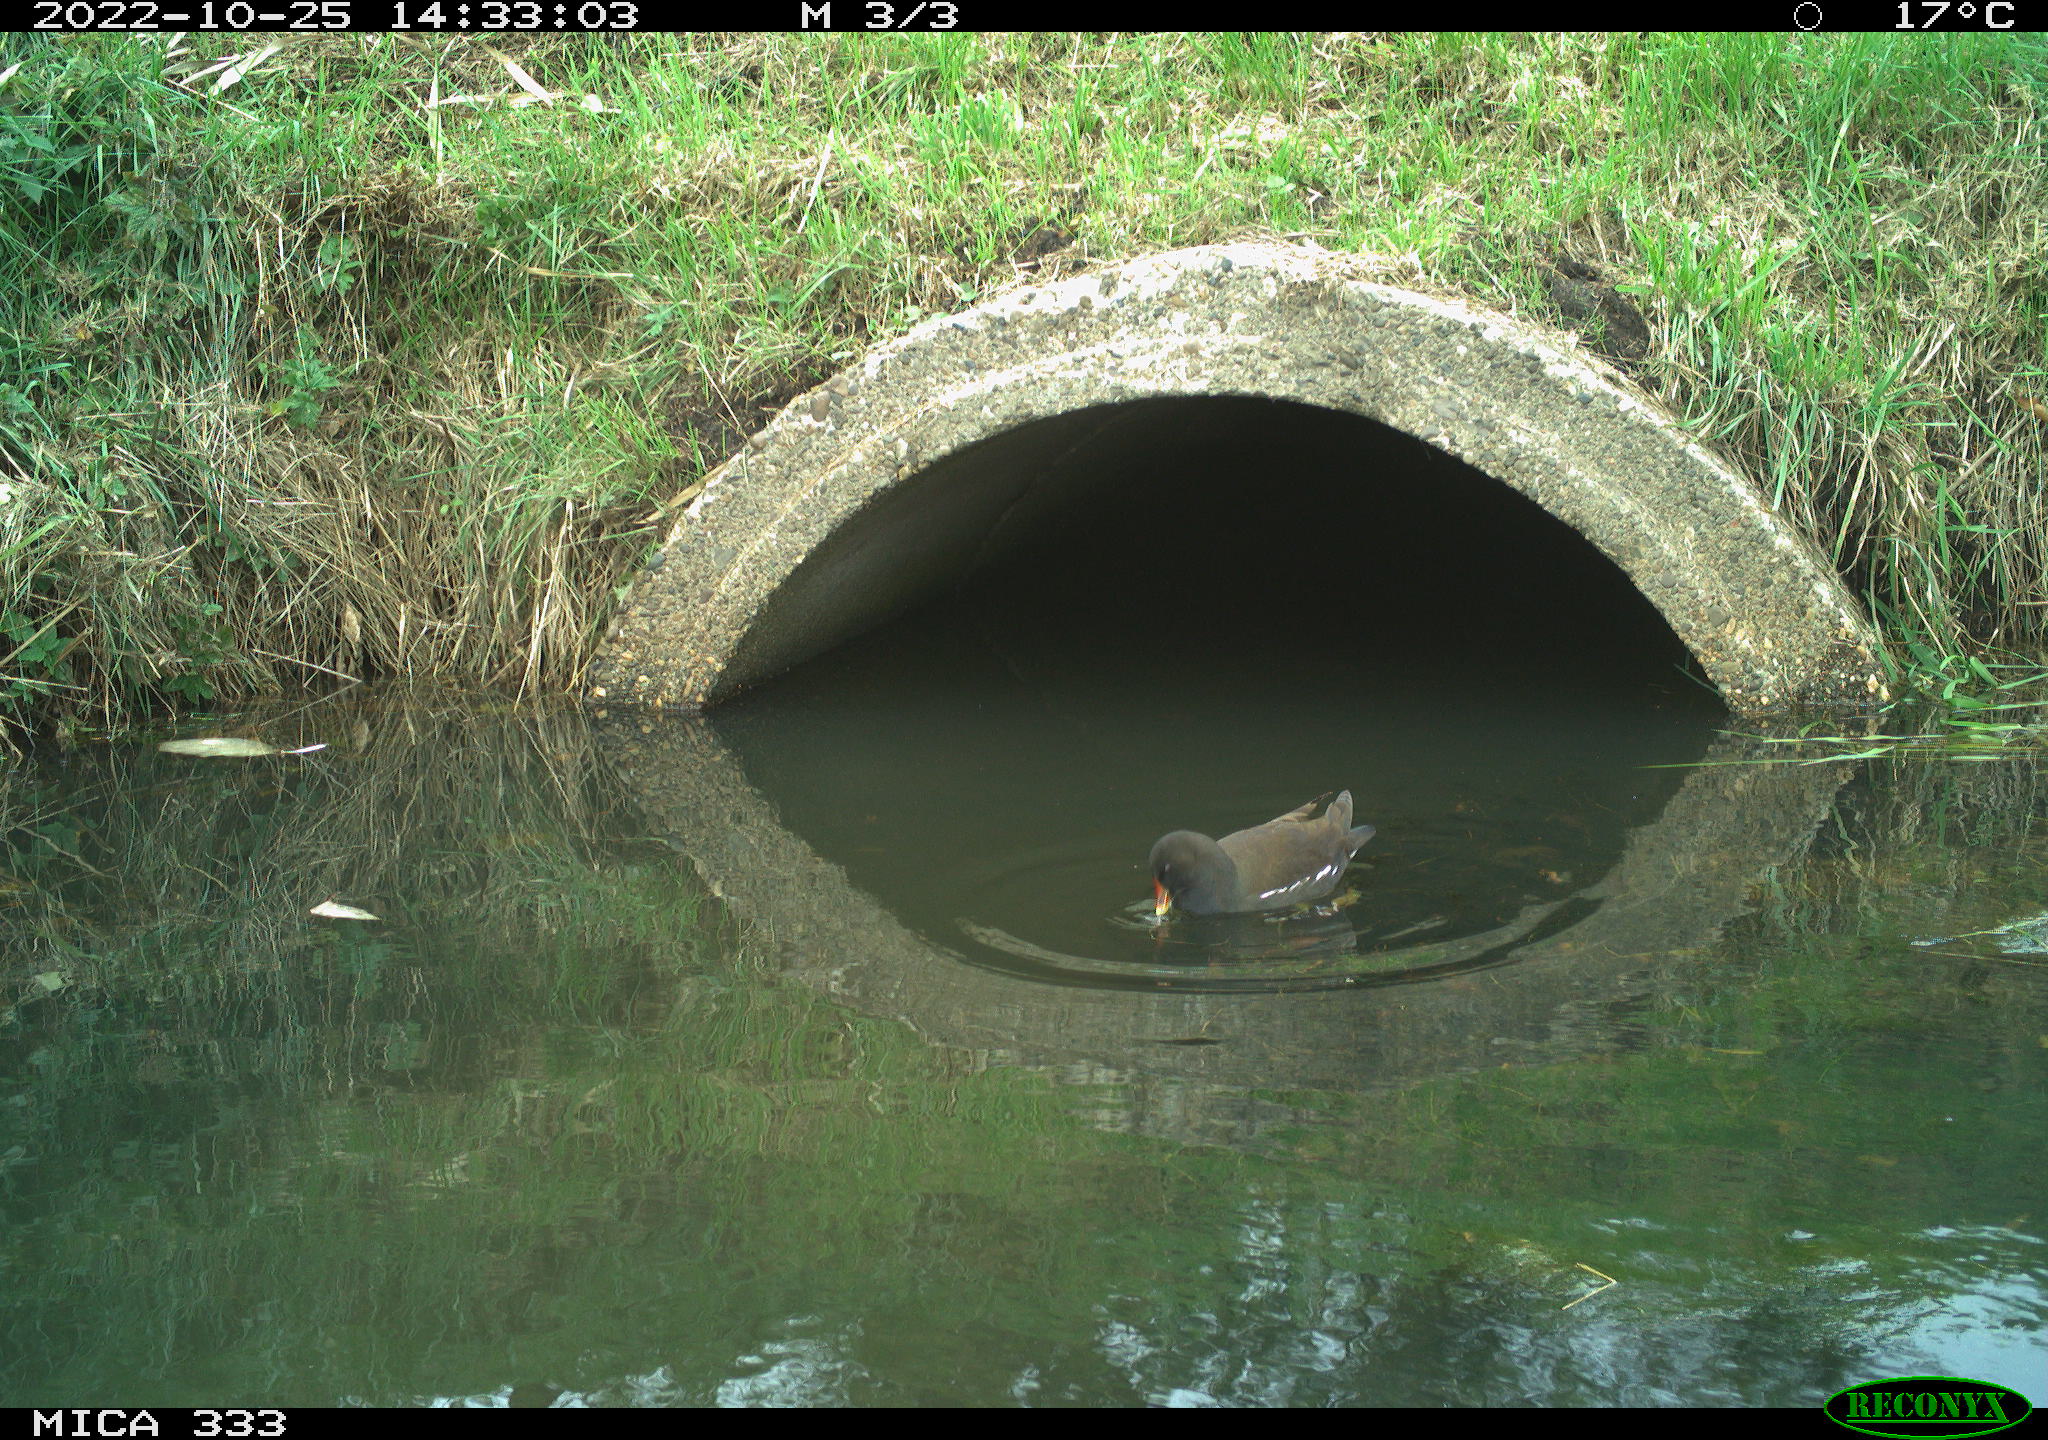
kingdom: Animalia
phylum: Chordata
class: Aves
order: Gruiformes
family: Rallidae
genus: Gallinula
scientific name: Gallinula chloropus
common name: Common moorhen
